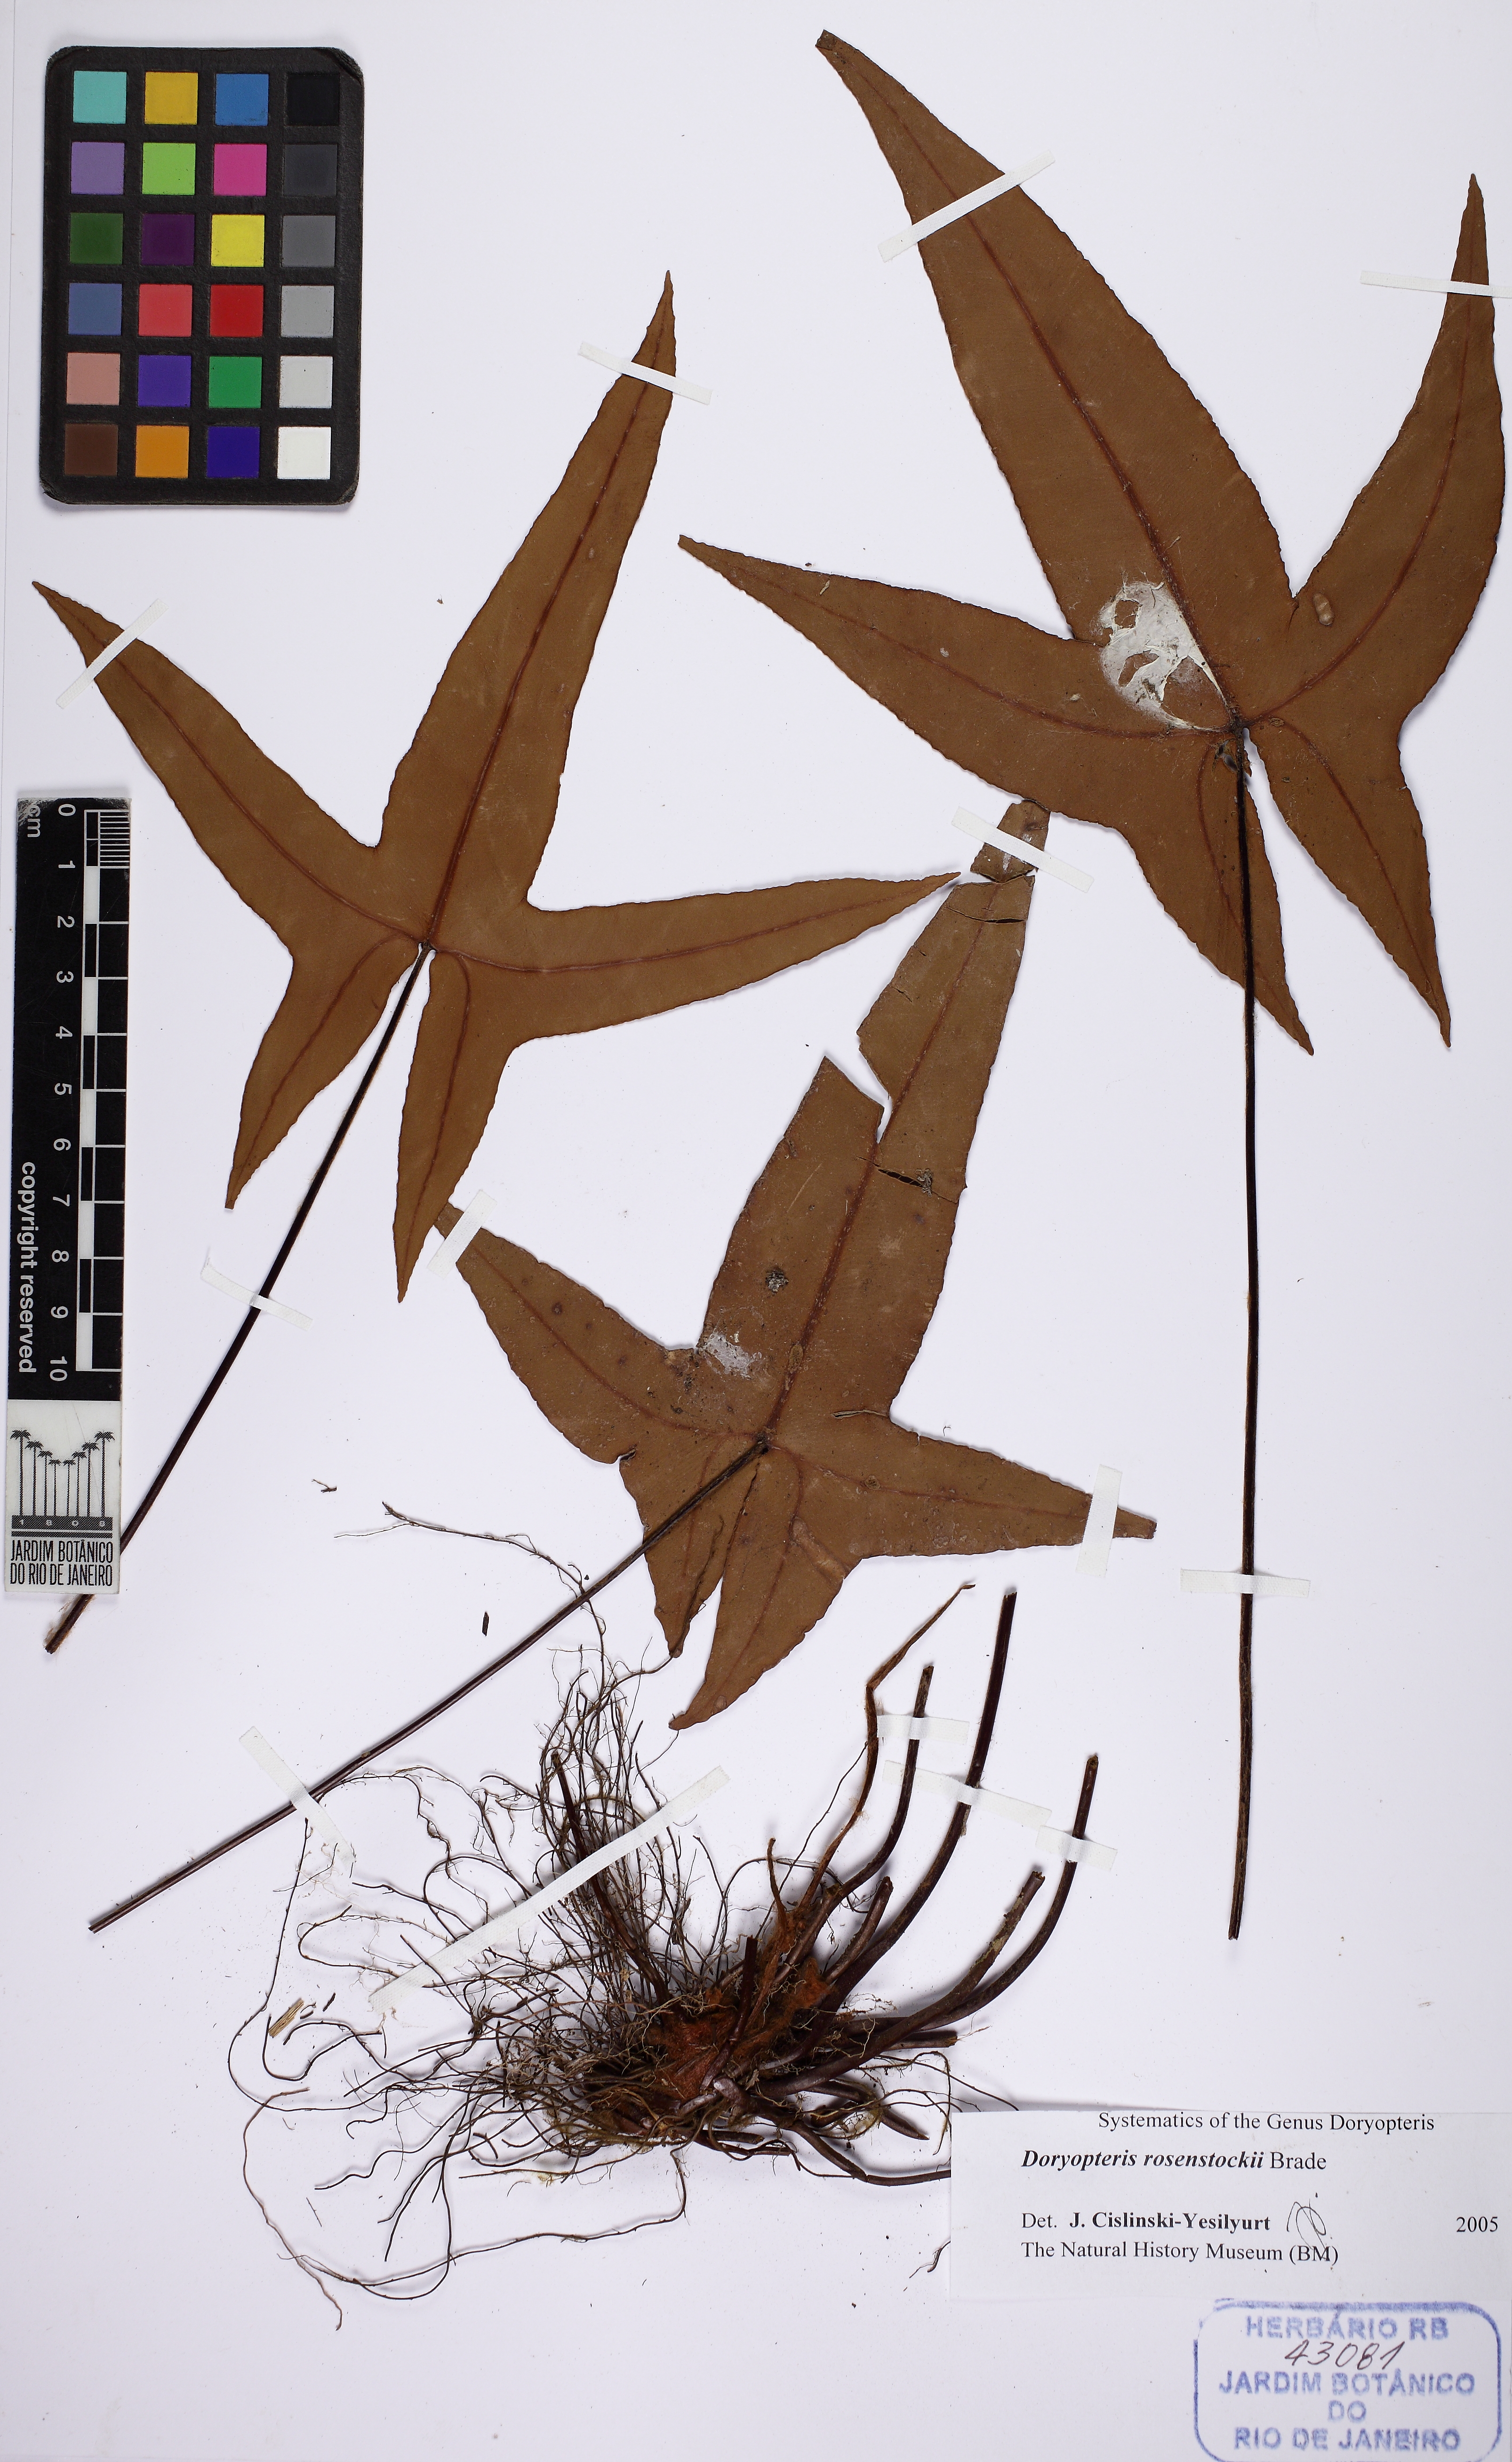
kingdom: Plantae
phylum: Tracheophyta
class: Polypodiopsida
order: Polypodiales
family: Pteridaceae
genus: Lytoneuron
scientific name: Lytoneuron rosenstockii
